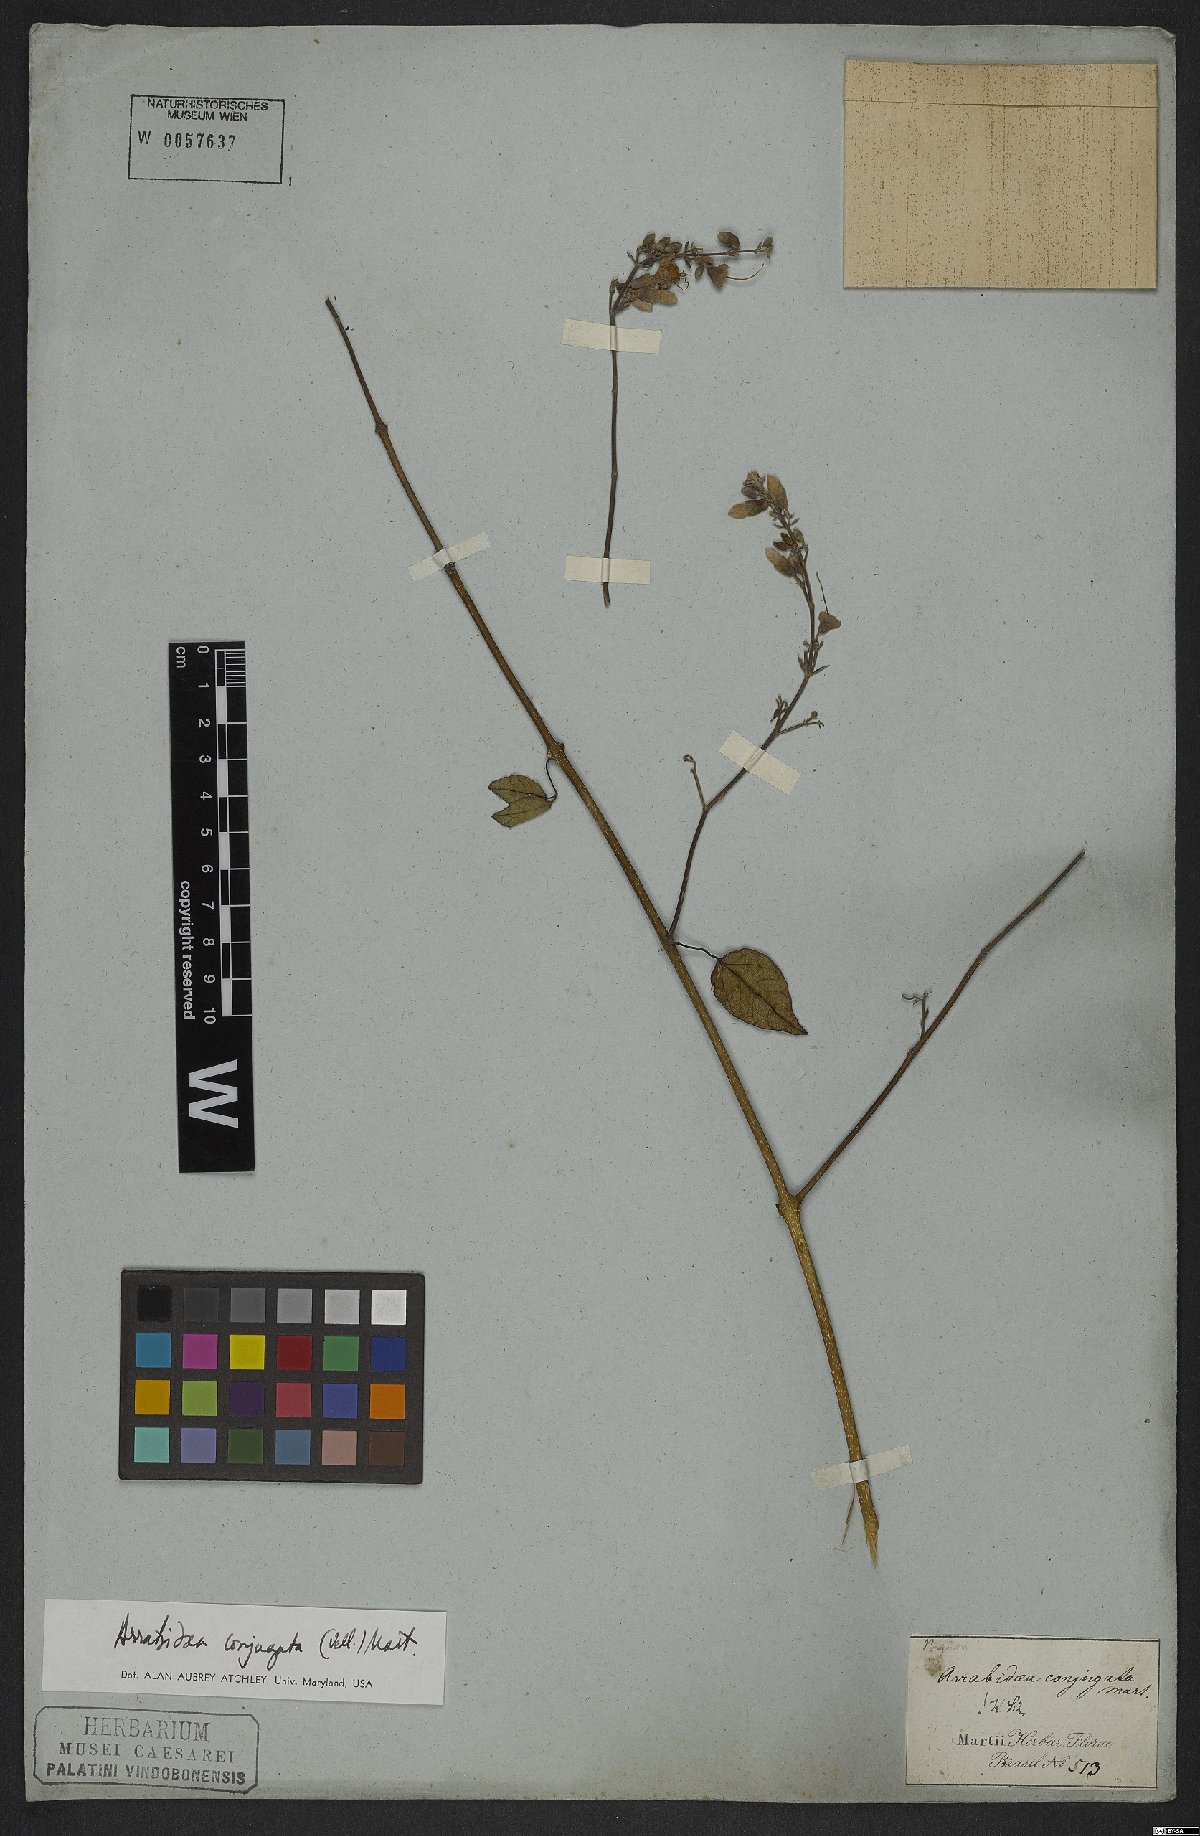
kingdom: Plantae
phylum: Tracheophyta
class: Magnoliopsida
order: Lamiales
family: Bignoniaceae
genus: Fridericia
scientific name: Fridericia conjugata
